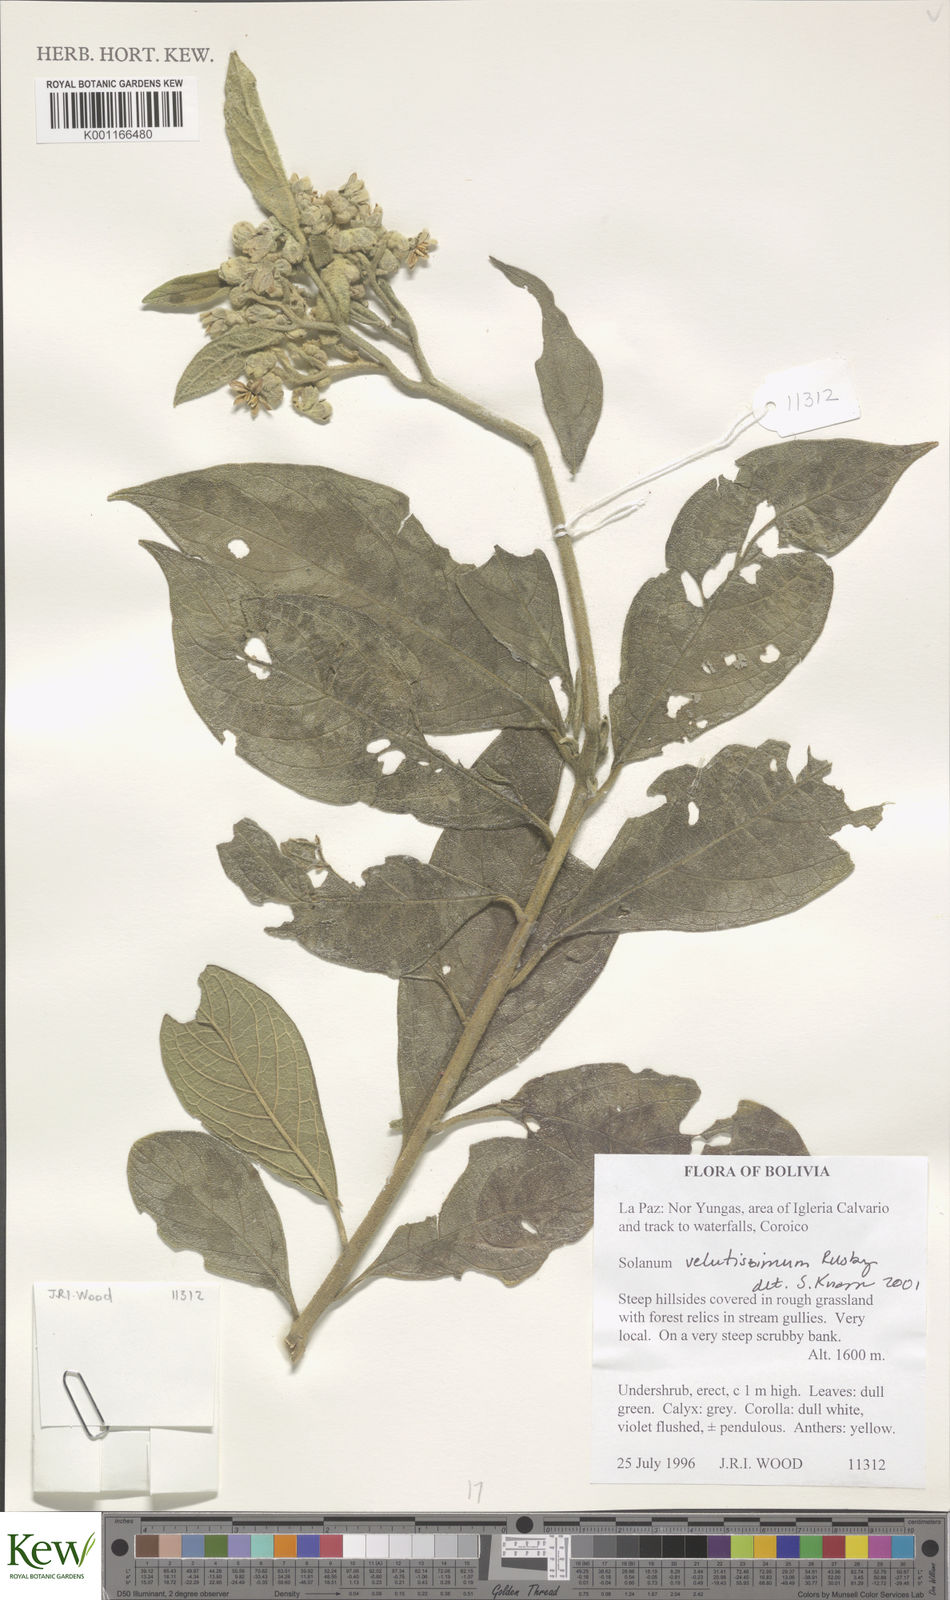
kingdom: Plantae
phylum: Tracheophyta
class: Magnoliopsida
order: Solanales
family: Solanaceae
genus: Solanum
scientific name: Solanum velutissimum
